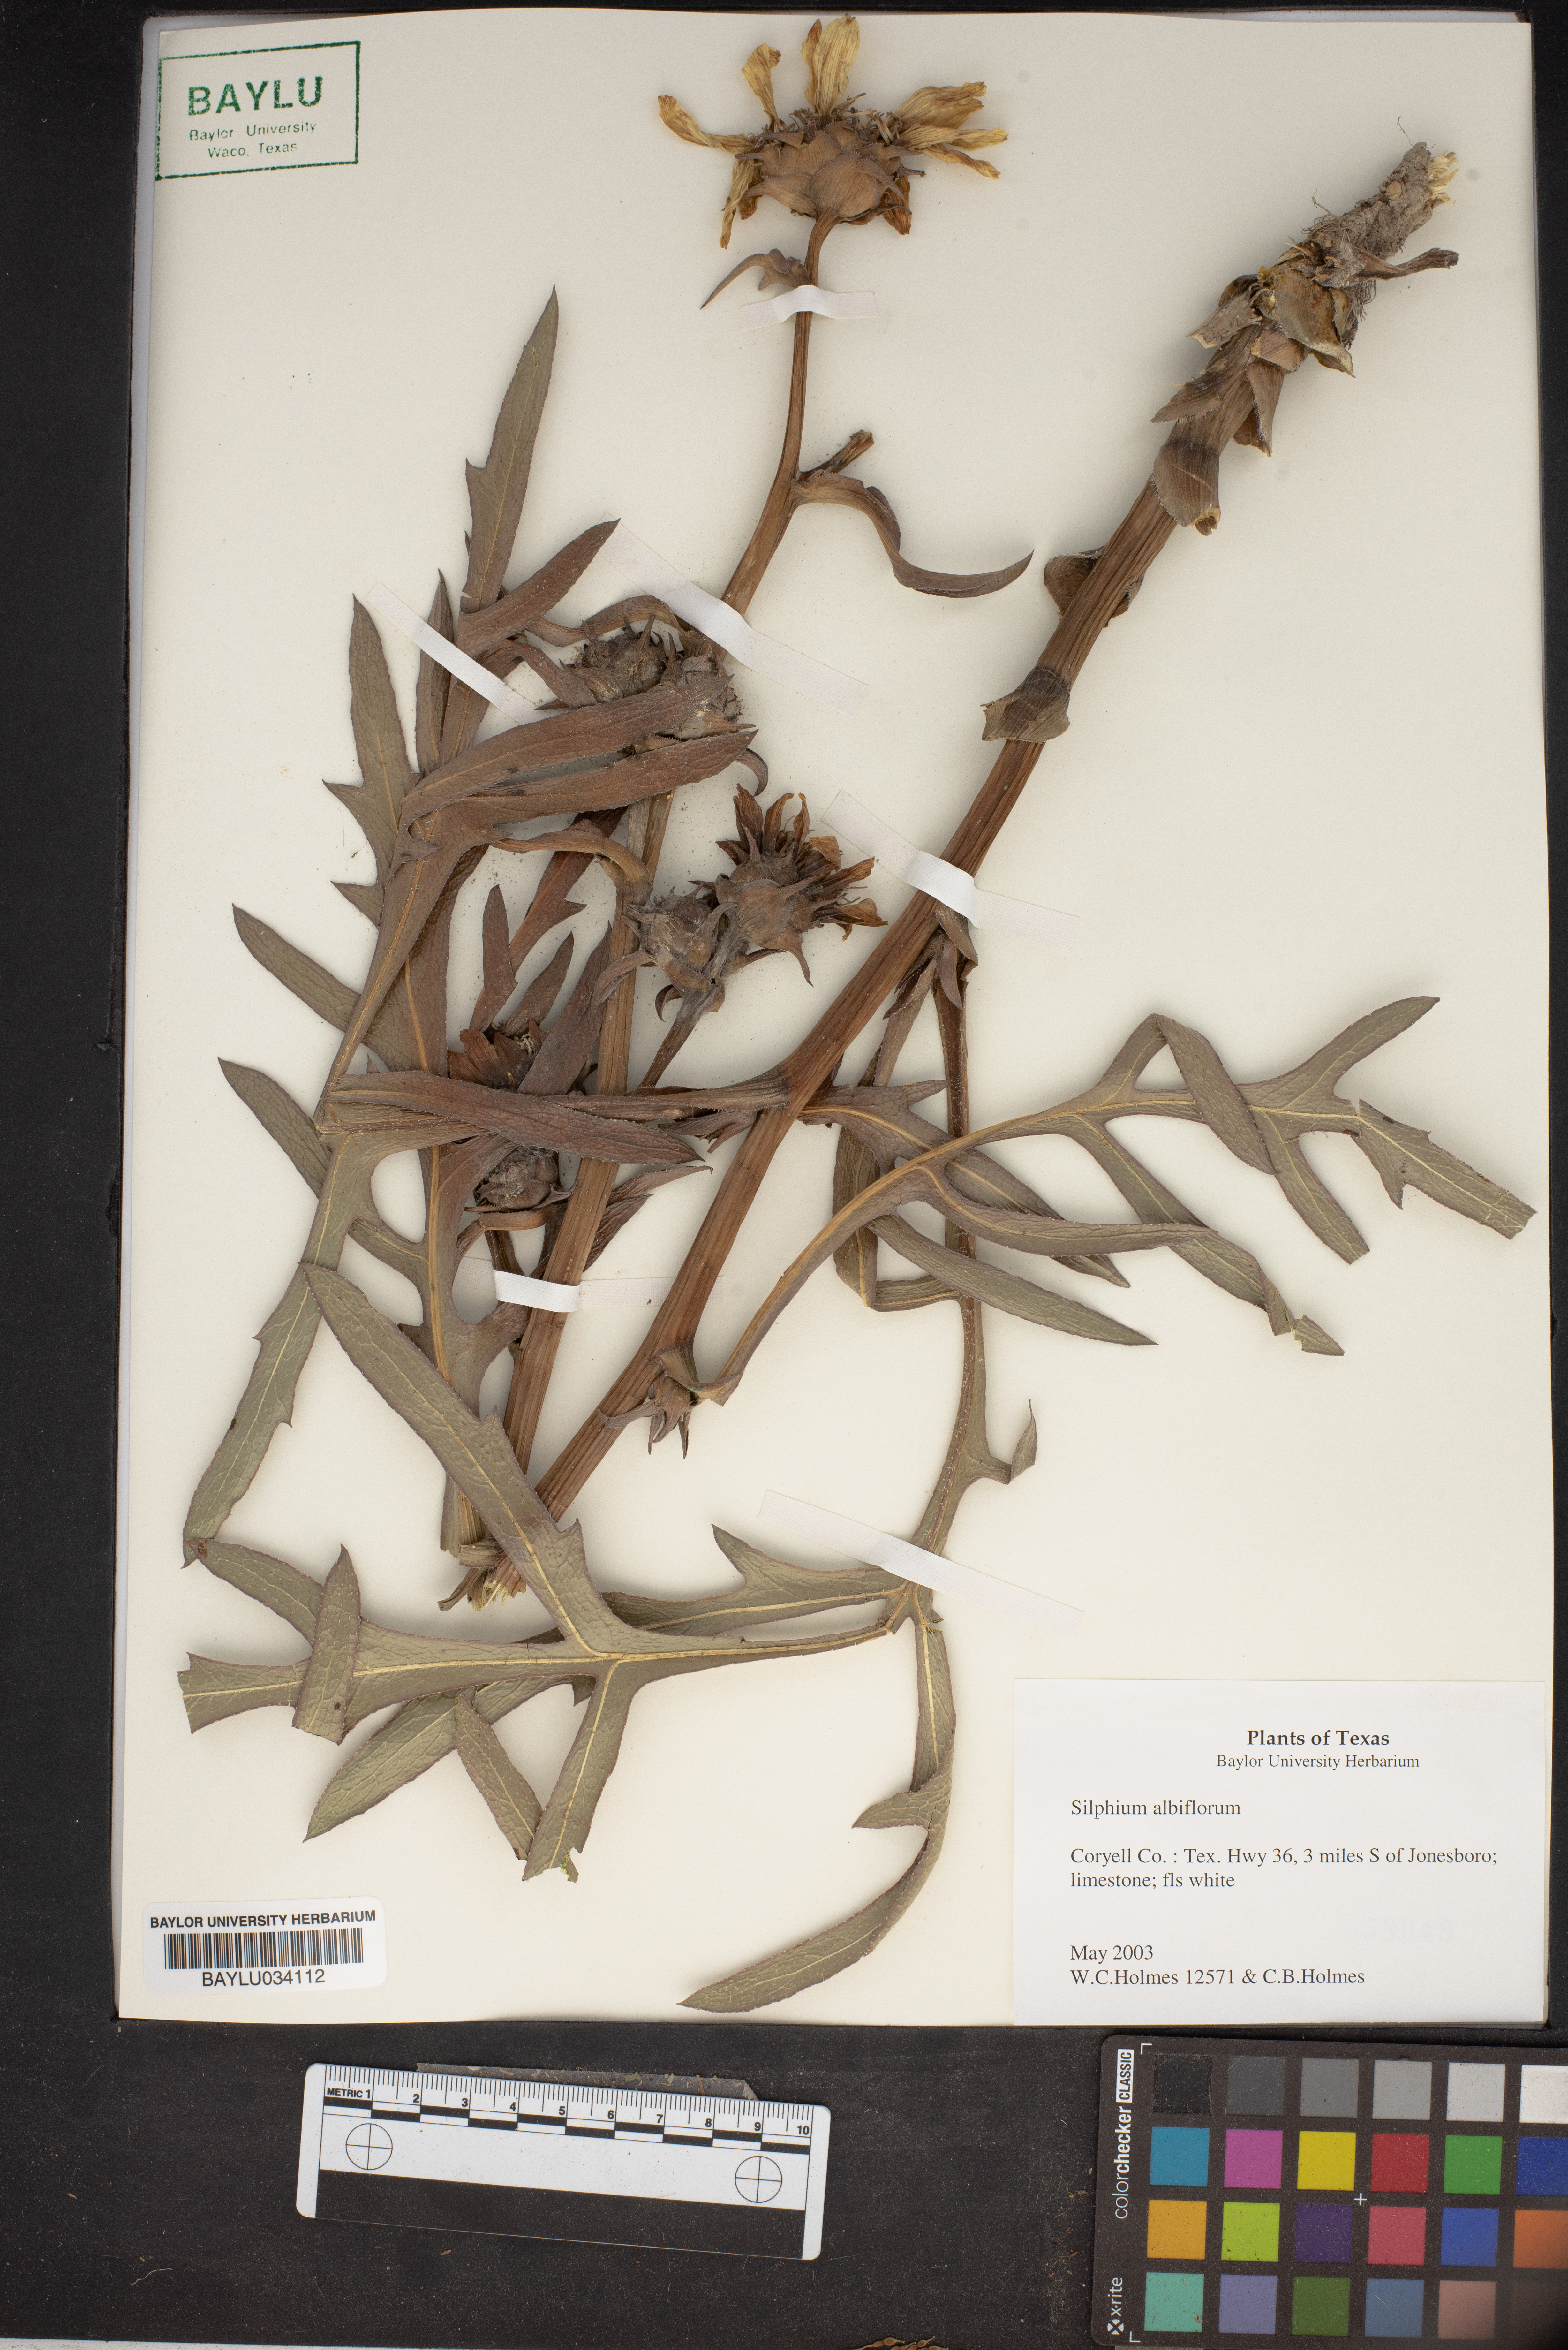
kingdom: Plantae
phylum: Tracheophyta
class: Magnoliopsida
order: Asterales
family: Asteraceae
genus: Silphium
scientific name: Silphium albiflorum
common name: White rosinweed
